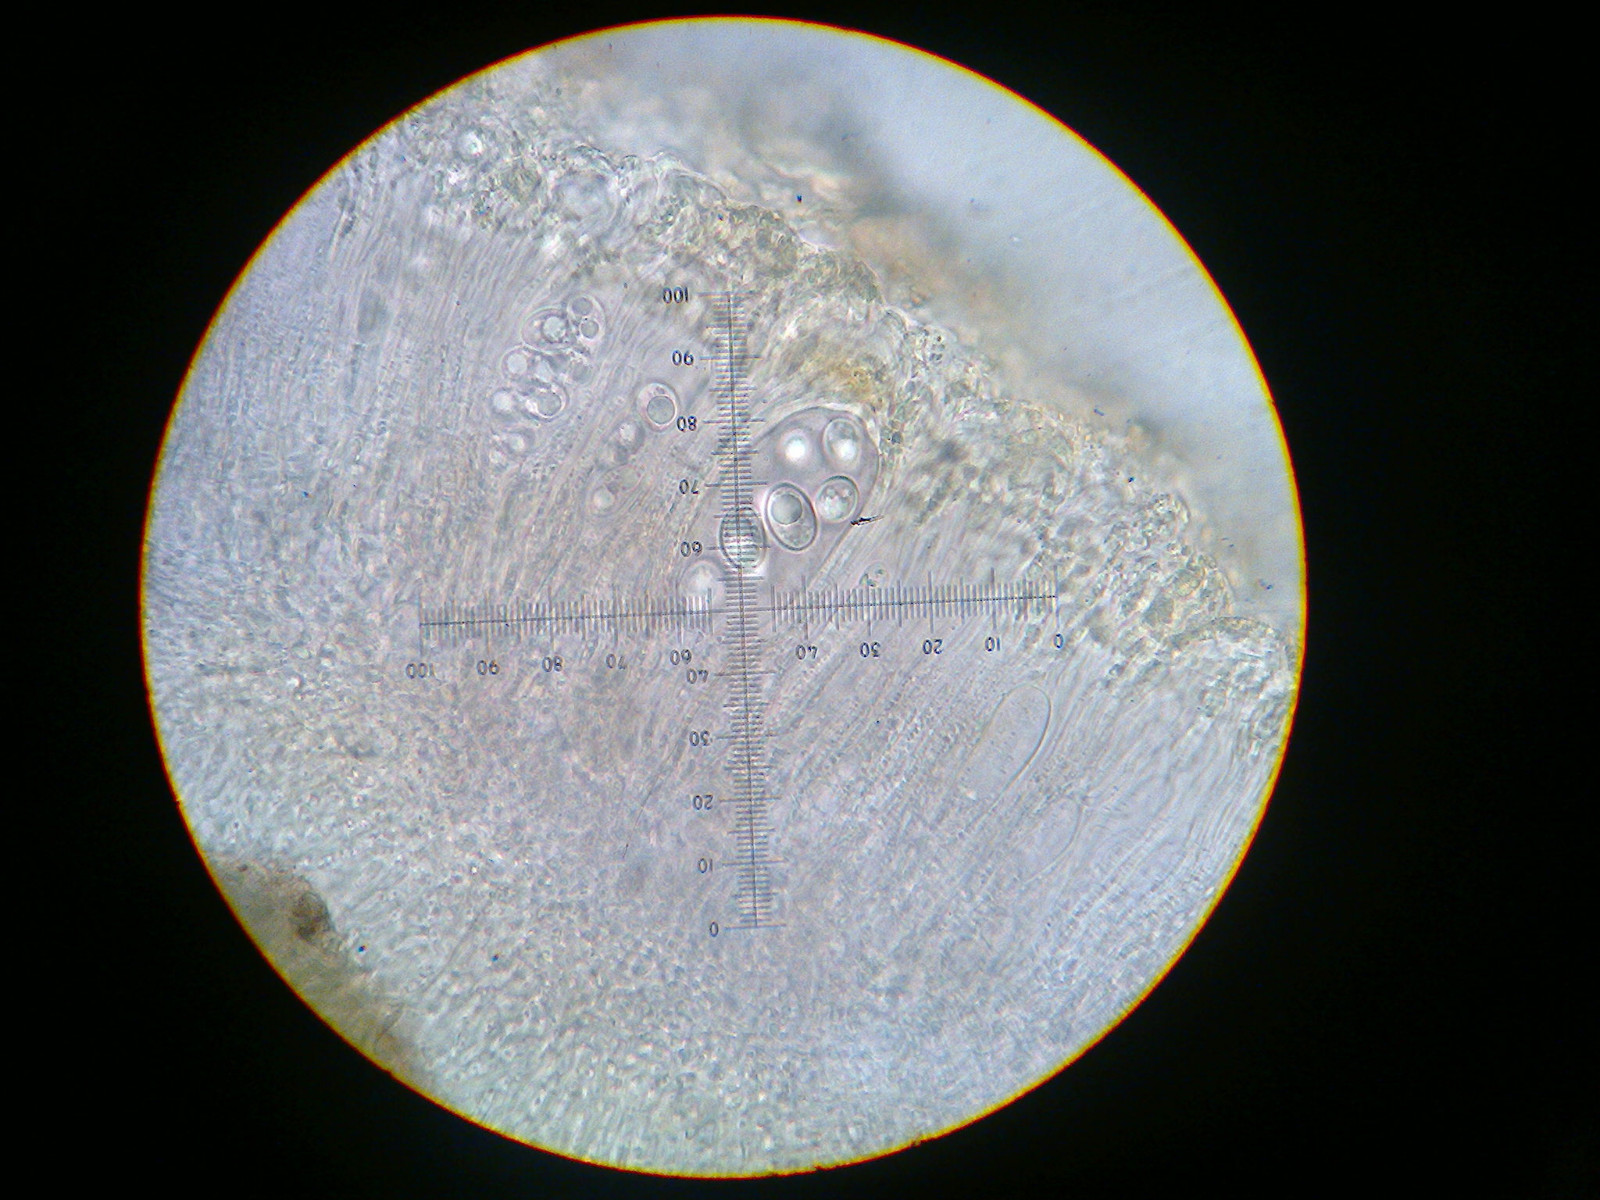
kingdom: Fungi
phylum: Ascomycota
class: Lecanoromycetes
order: Lecanorales
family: Lecanoraceae
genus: Lecidella
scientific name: Lecidella elaeochroma
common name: grågrøn skivelav
